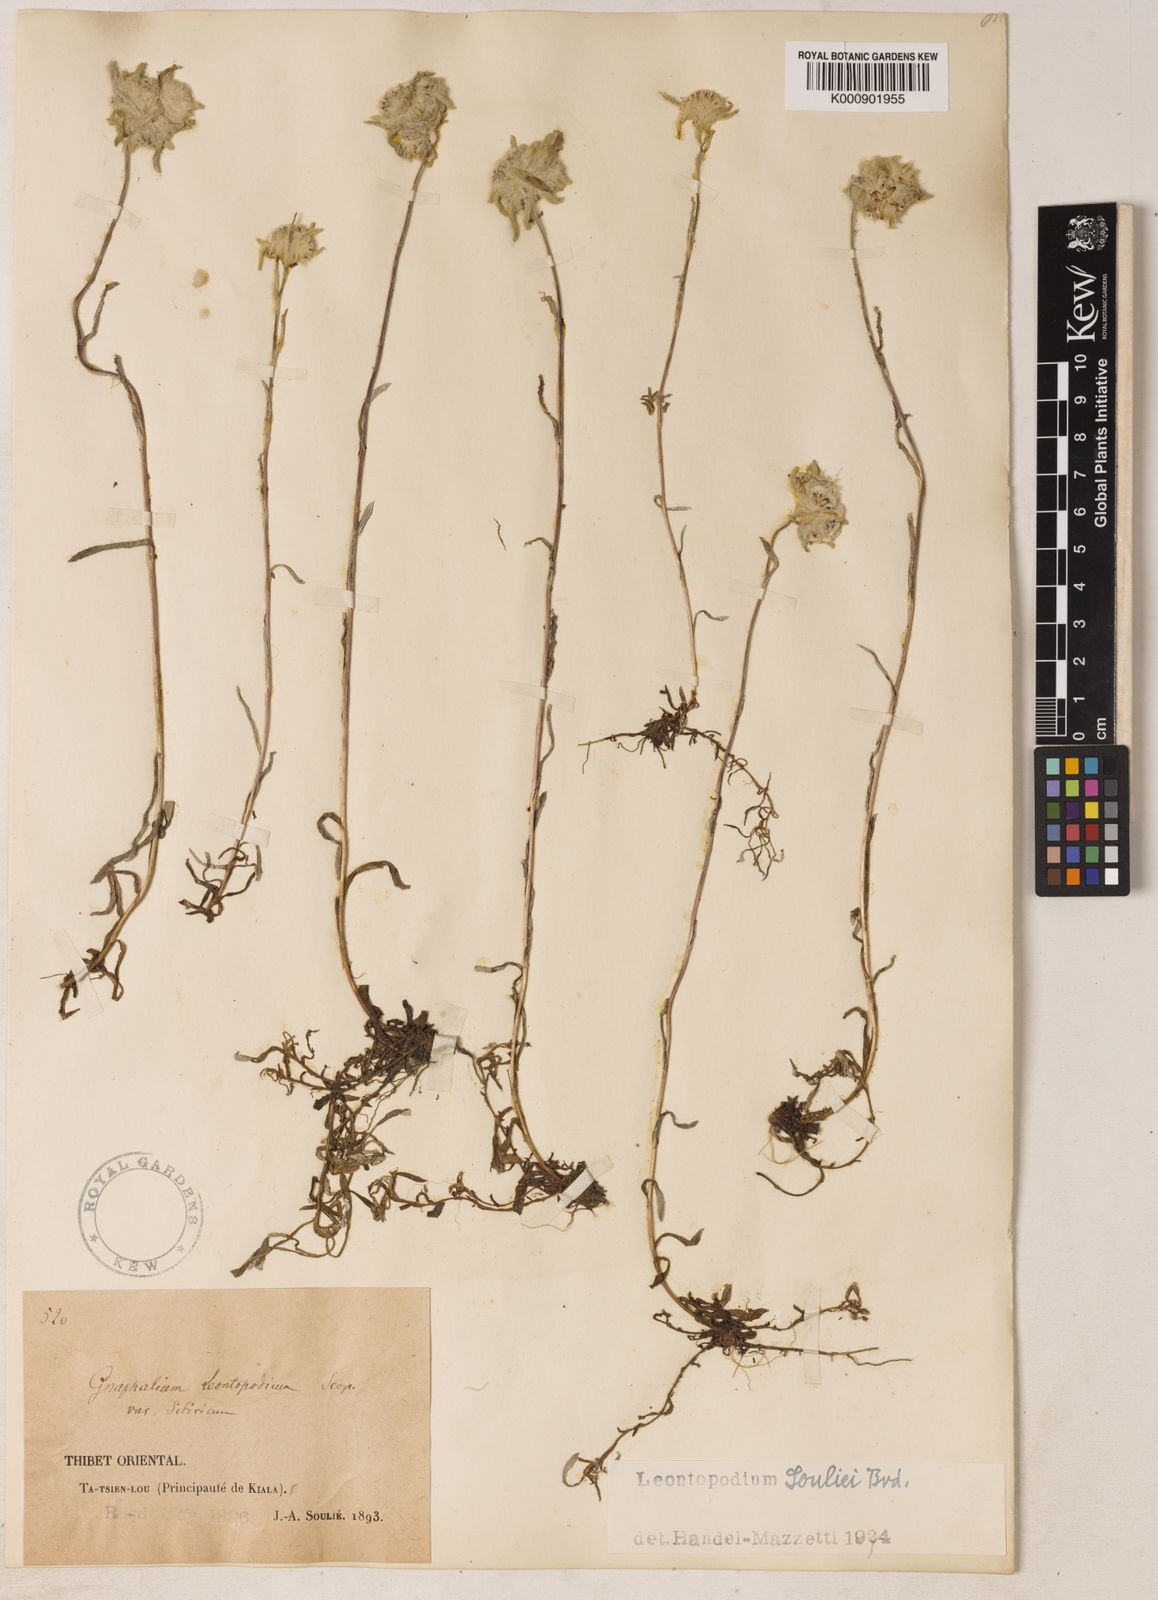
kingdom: Plantae
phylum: Tracheophyta
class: Magnoliopsida
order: Asterales
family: Asteraceae
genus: Leontopodium
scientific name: Leontopodium souliei
